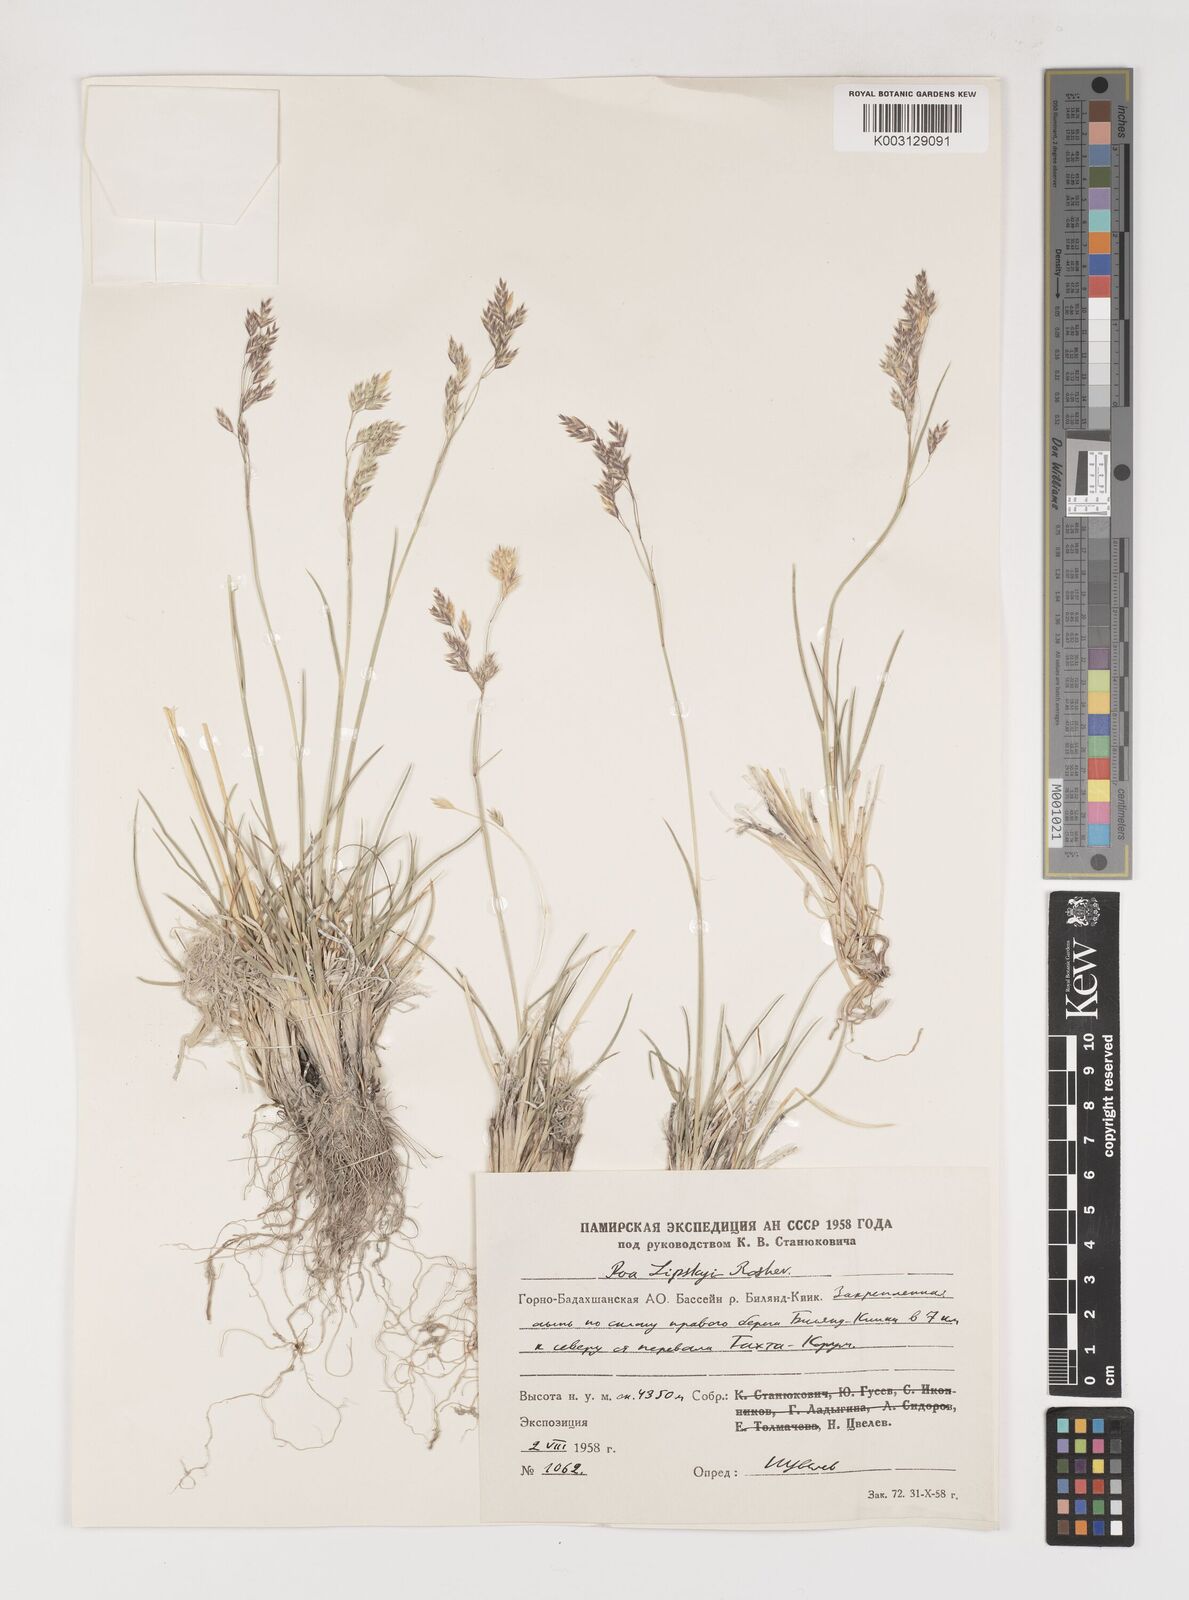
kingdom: Plantae
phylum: Tracheophyta
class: Liliopsida
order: Poales
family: Poaceae
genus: Poa
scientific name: Poa lipskyi
